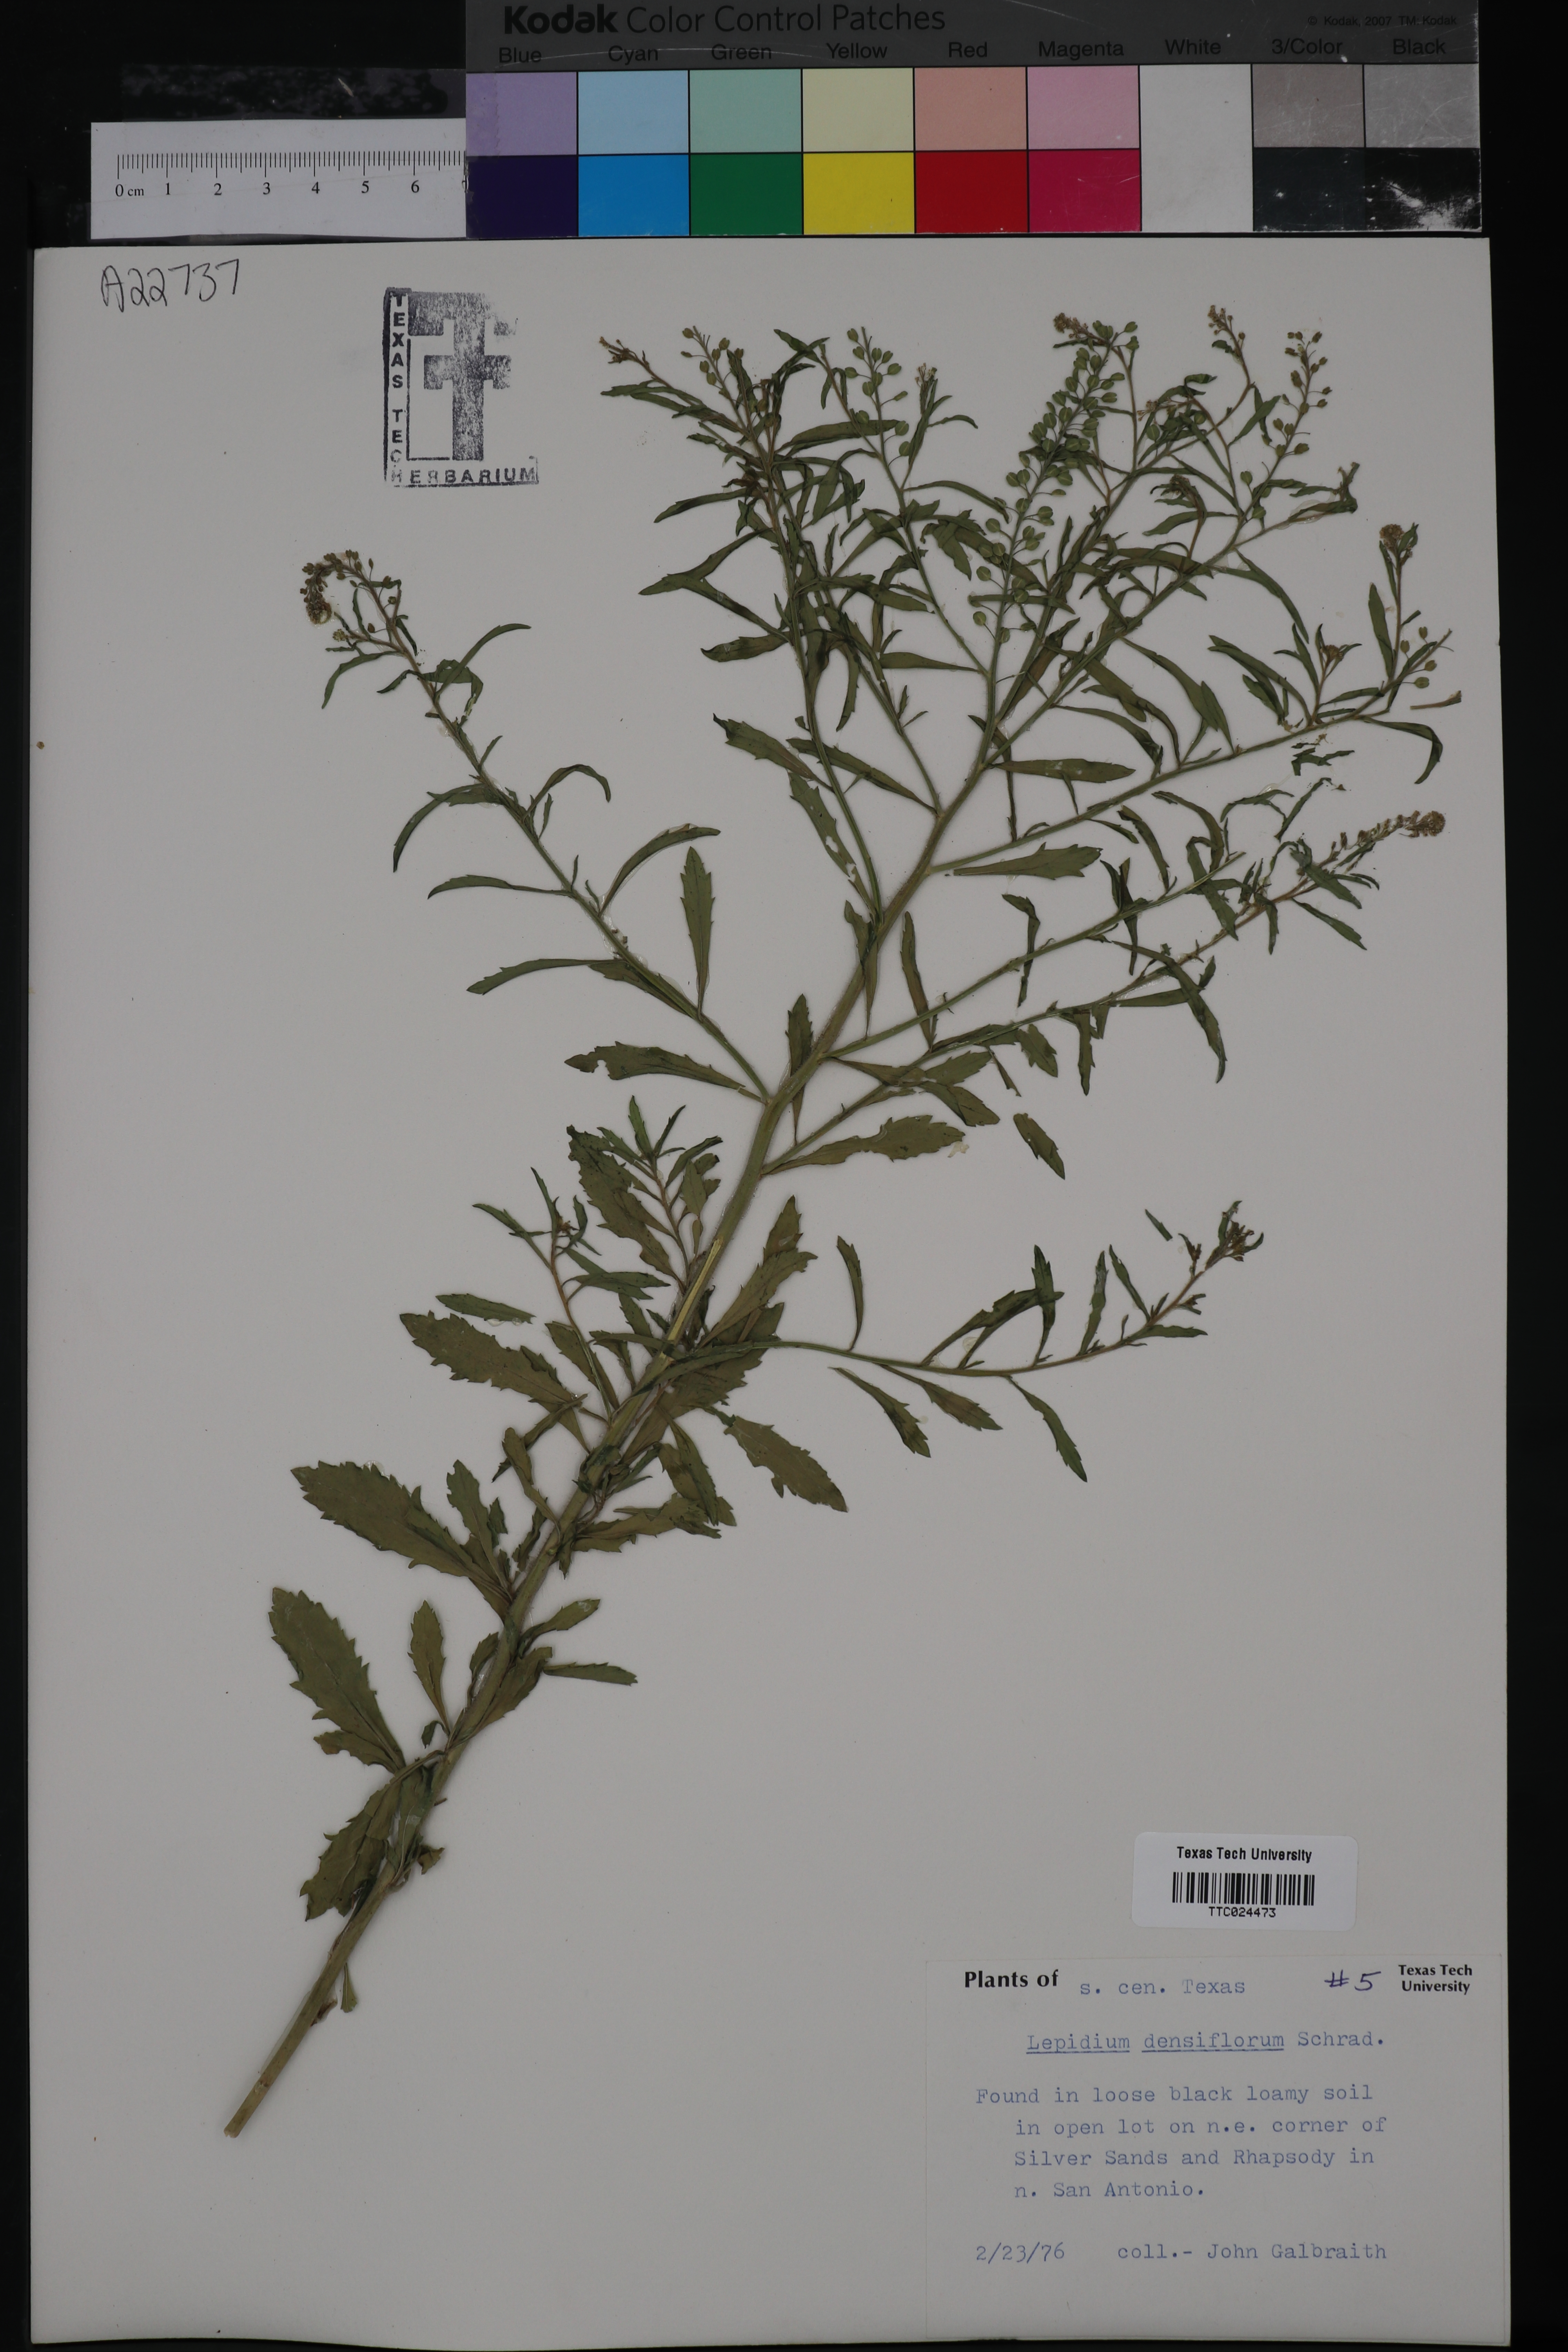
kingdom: Plantae
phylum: Tracheophyta
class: Magnoliopsida
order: Brassicales
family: Brassicaceae
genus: Lepidium
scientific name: Lepidium densiflorum
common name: Miner's pepperwort
